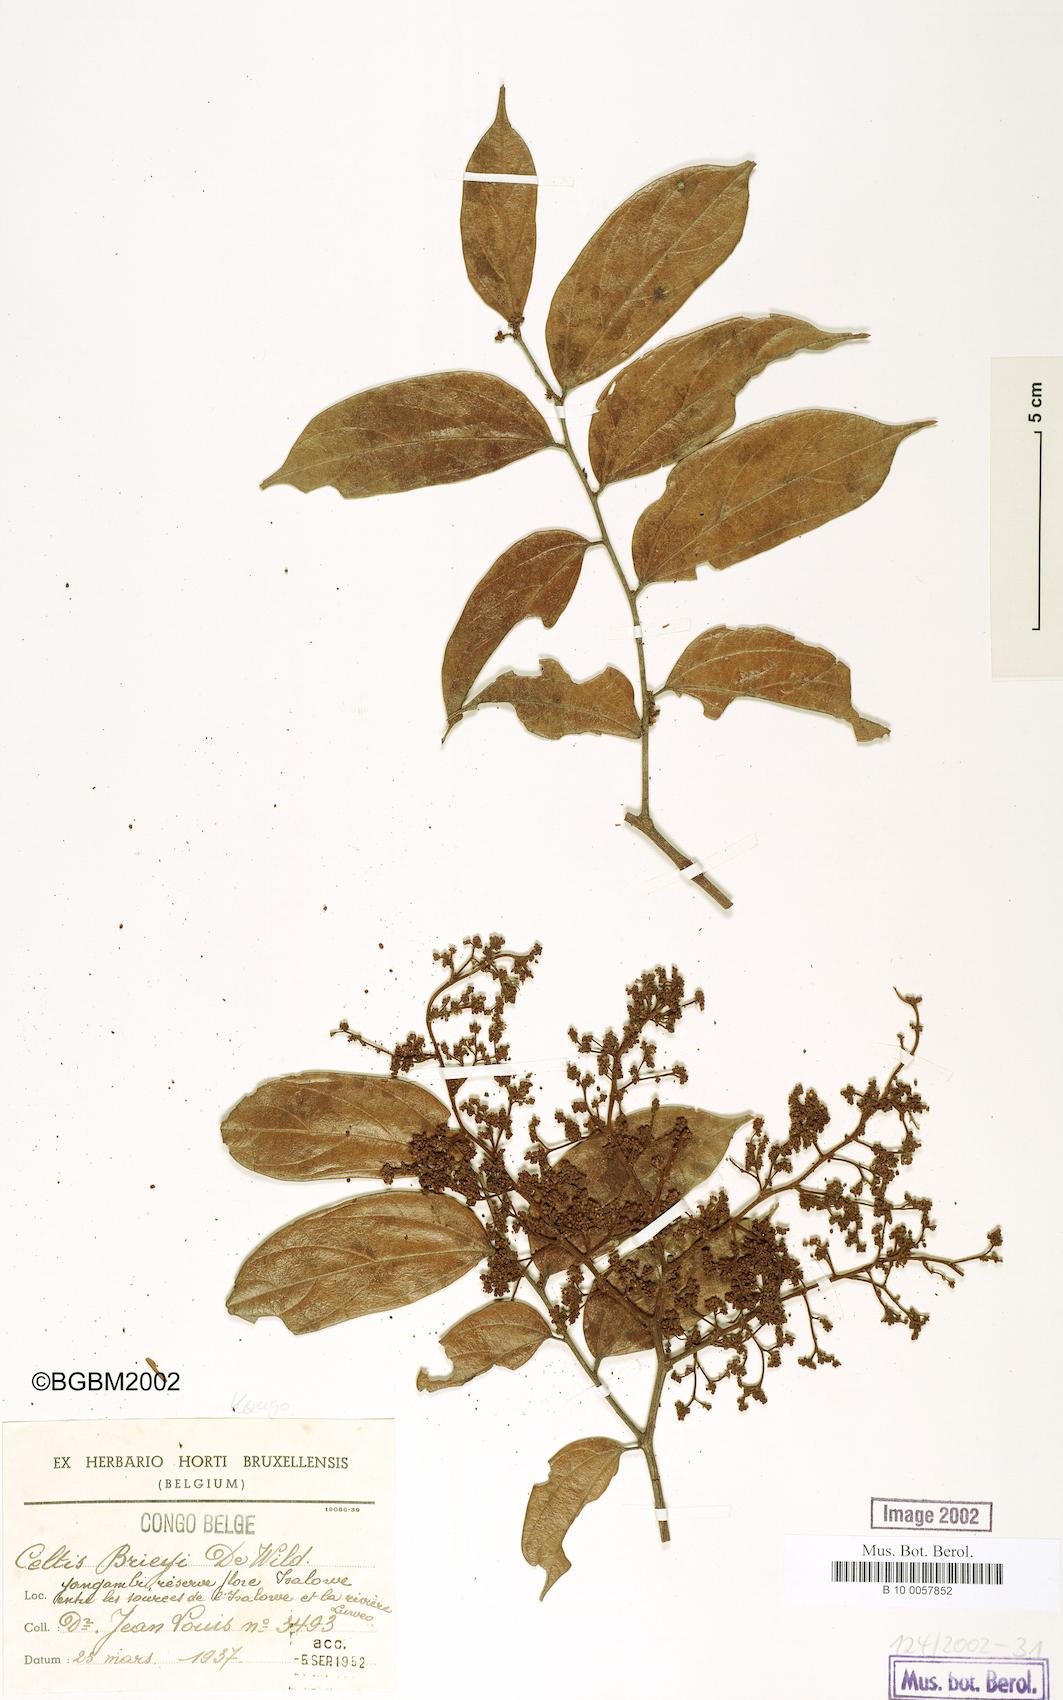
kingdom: Plantae
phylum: Tracheophyta
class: Magnoliopsida
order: Rosales
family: Cannabaceae
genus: Celtis
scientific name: Celtis tessmannii
